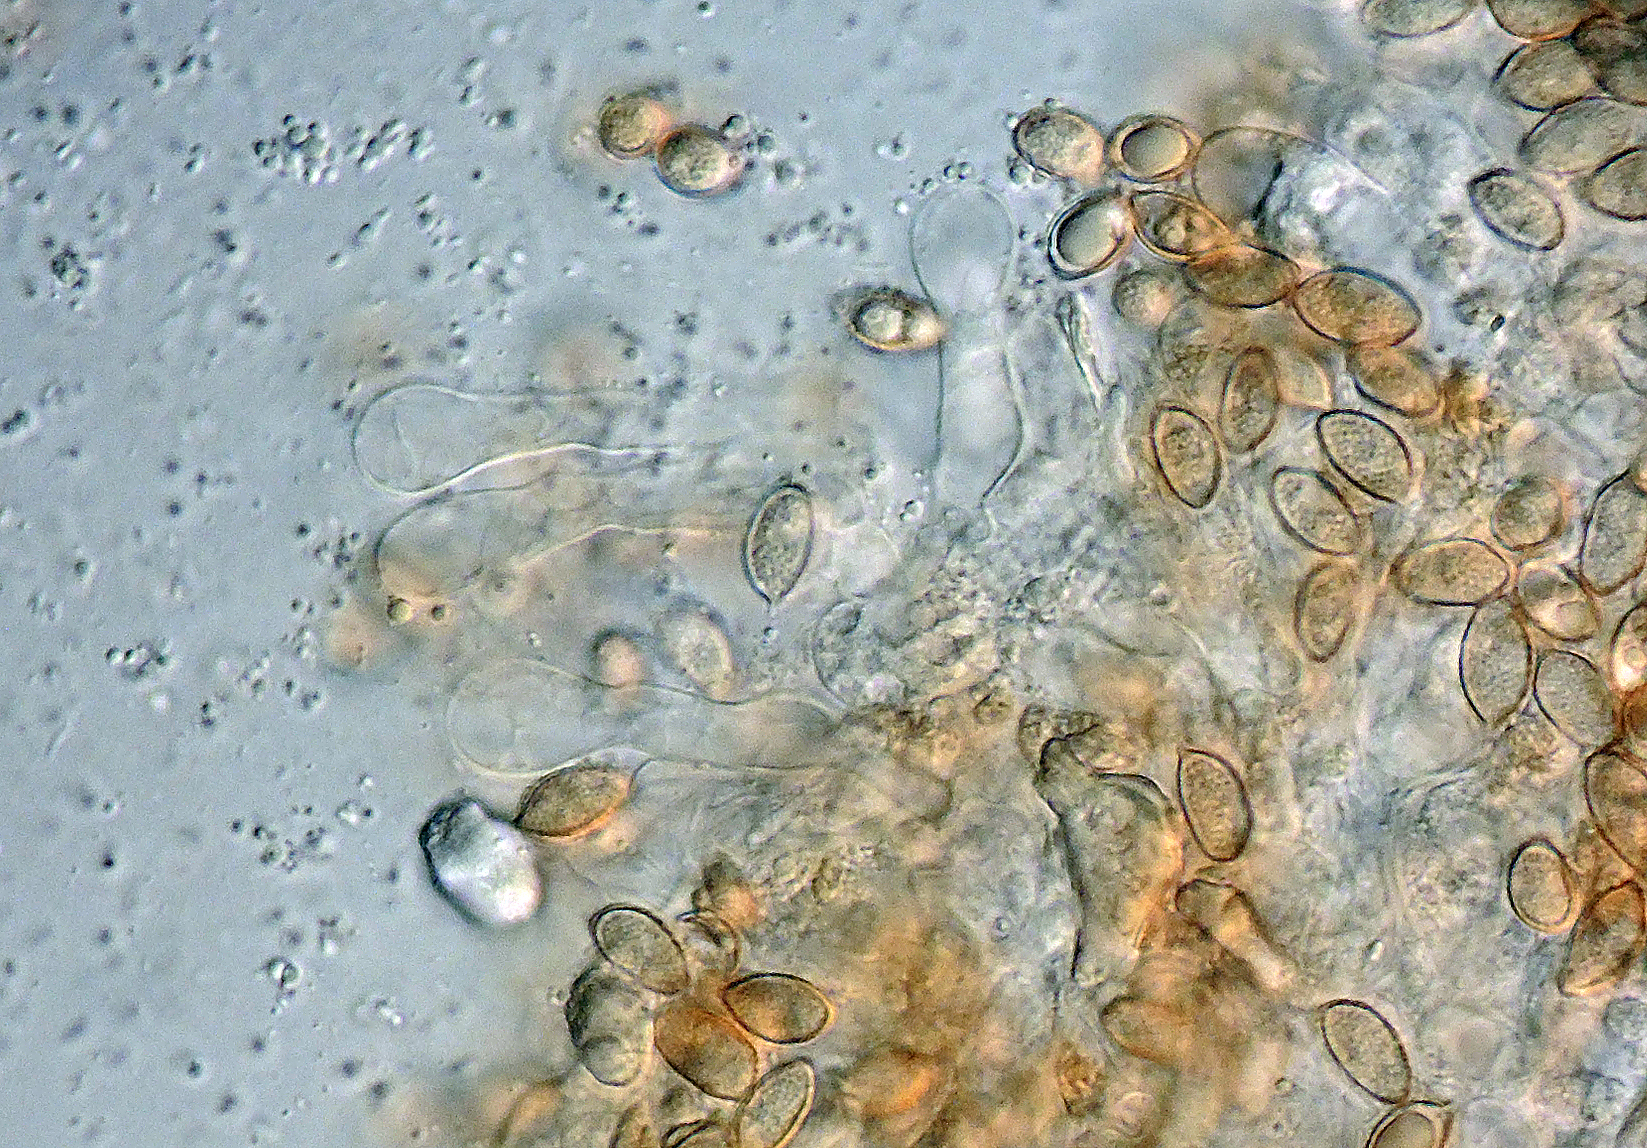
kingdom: Fungi
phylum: Basidiomycota
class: Agaricomycetes
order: Agaricales
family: Hymenogastraceae
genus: Hebeloma
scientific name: Hebeloma griseopruinatum
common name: grådugget tåreblad
